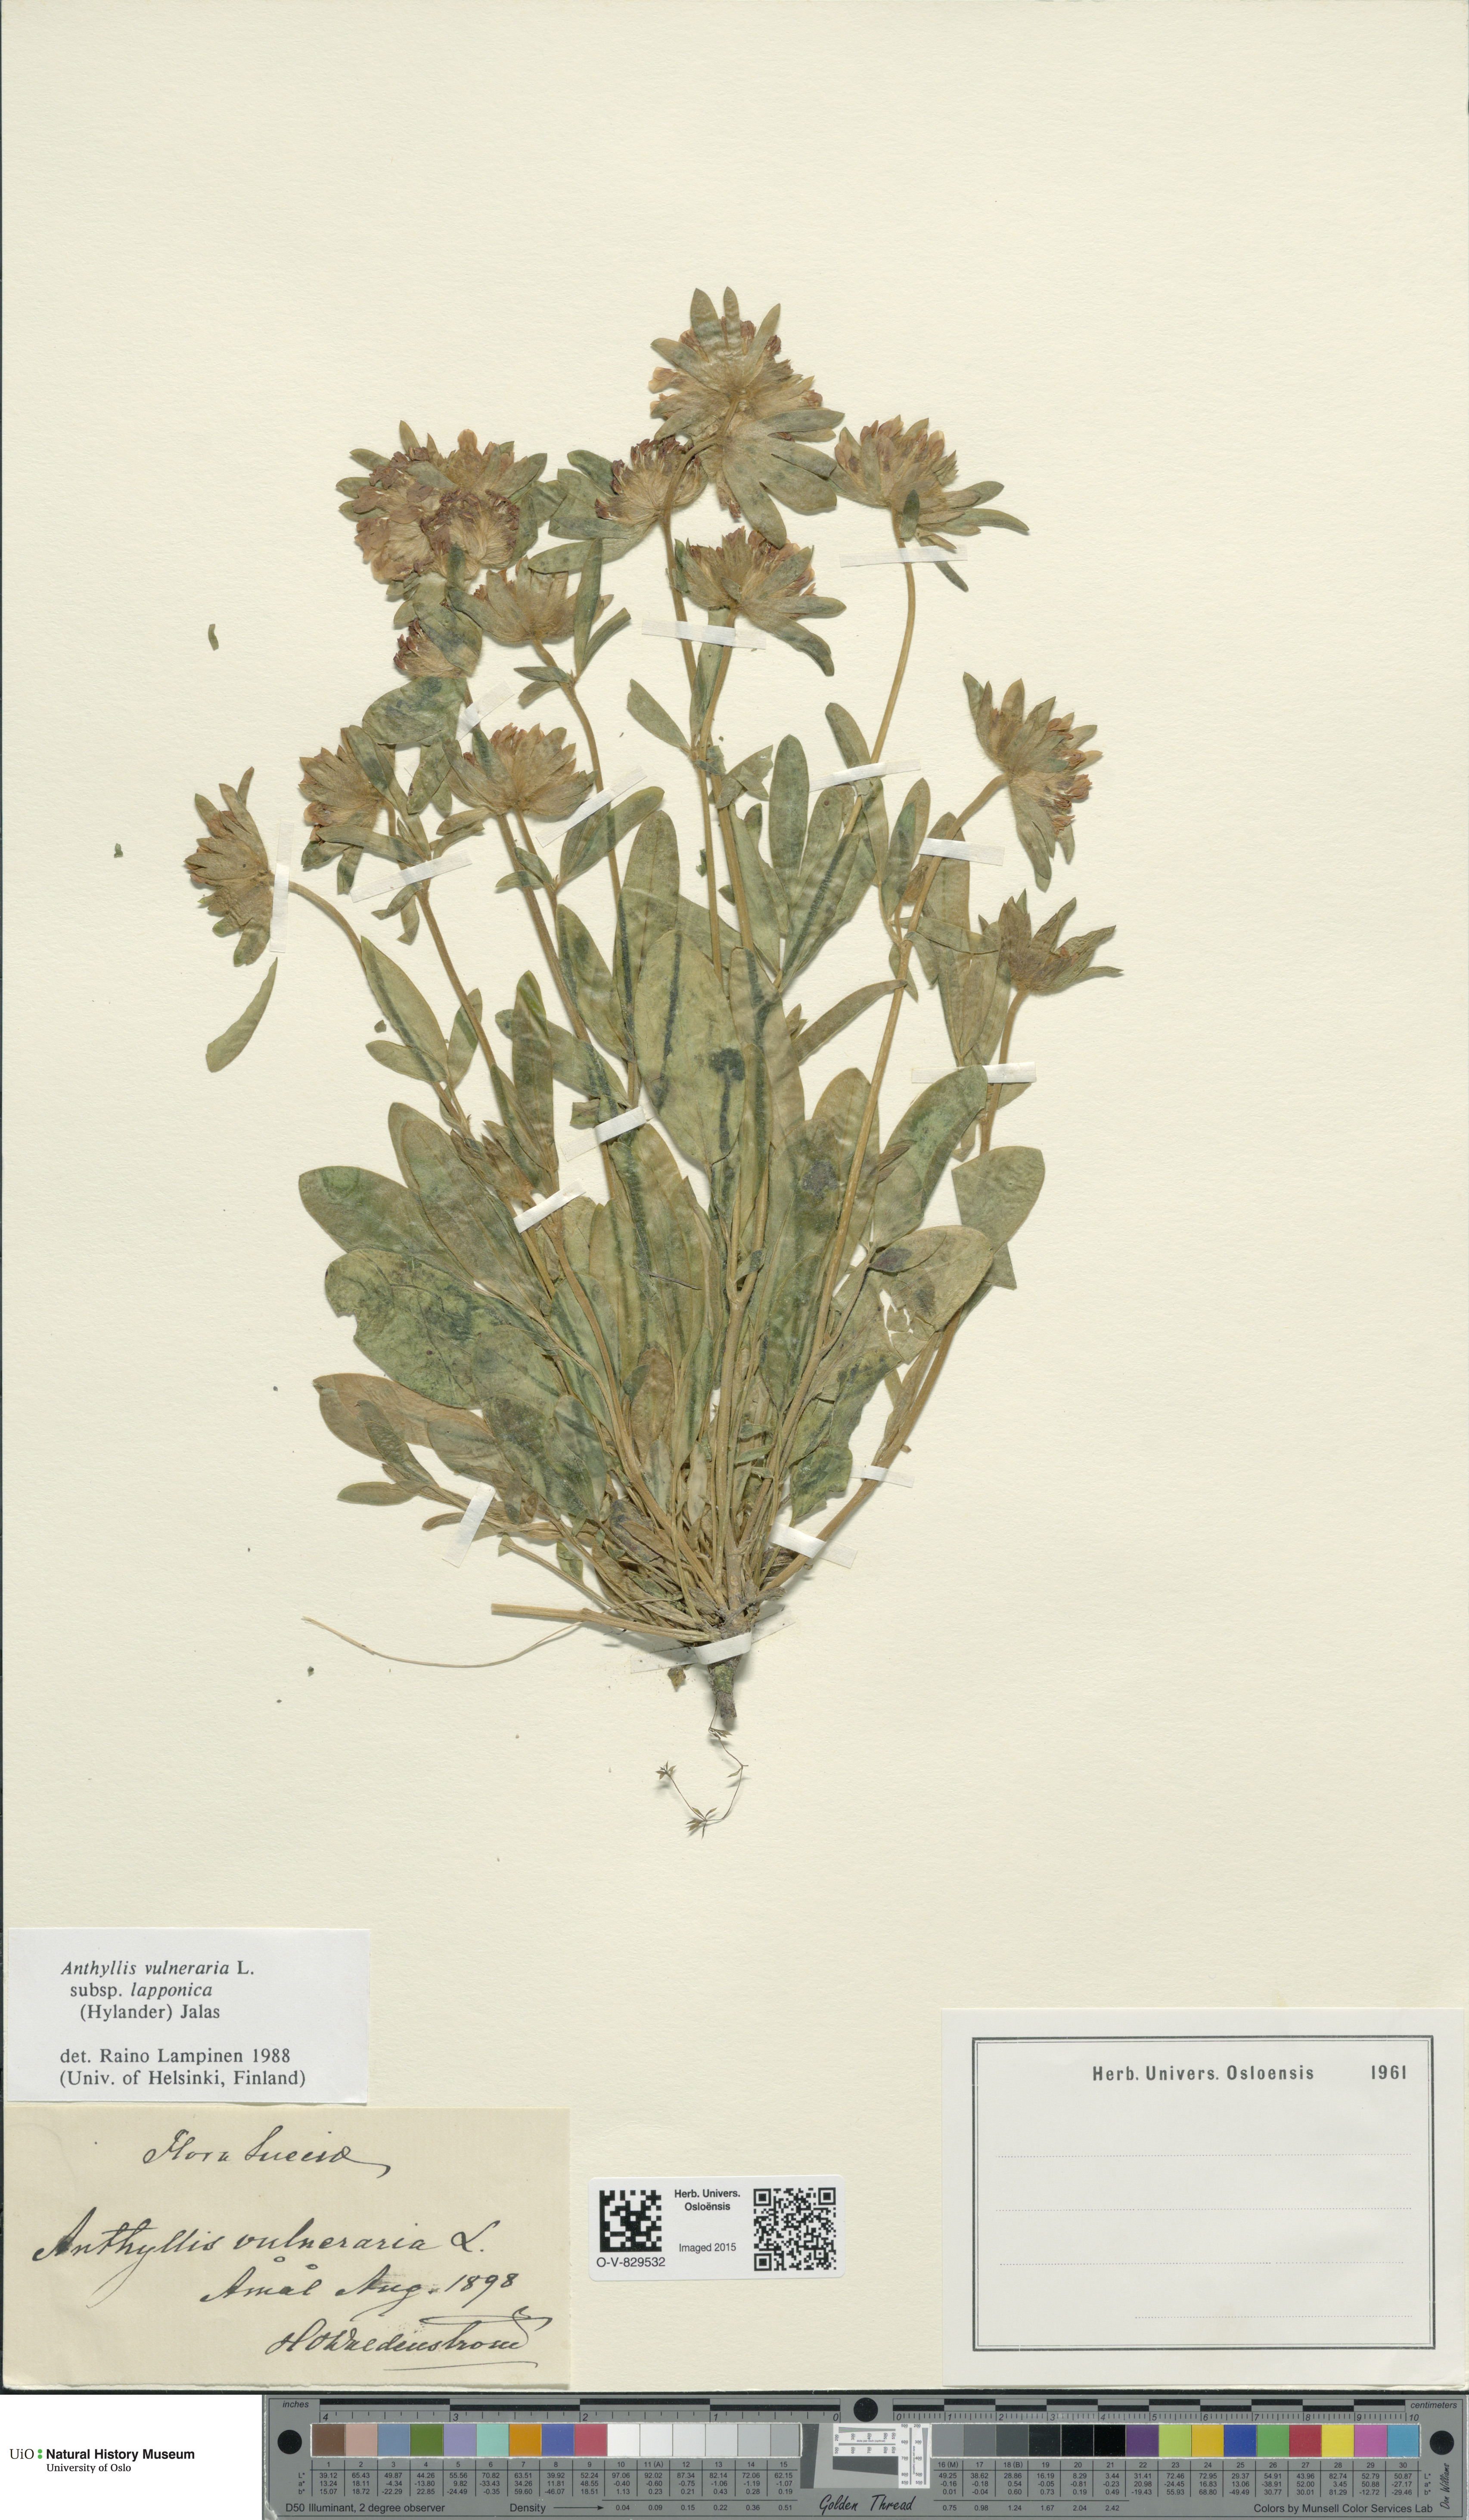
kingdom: Plantae
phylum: Tracheophyta
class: Magnoliopsida
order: Fabales
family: Fabaceae
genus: Anthyllis
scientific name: Anthyllis vulneraria
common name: Kidney vetch
